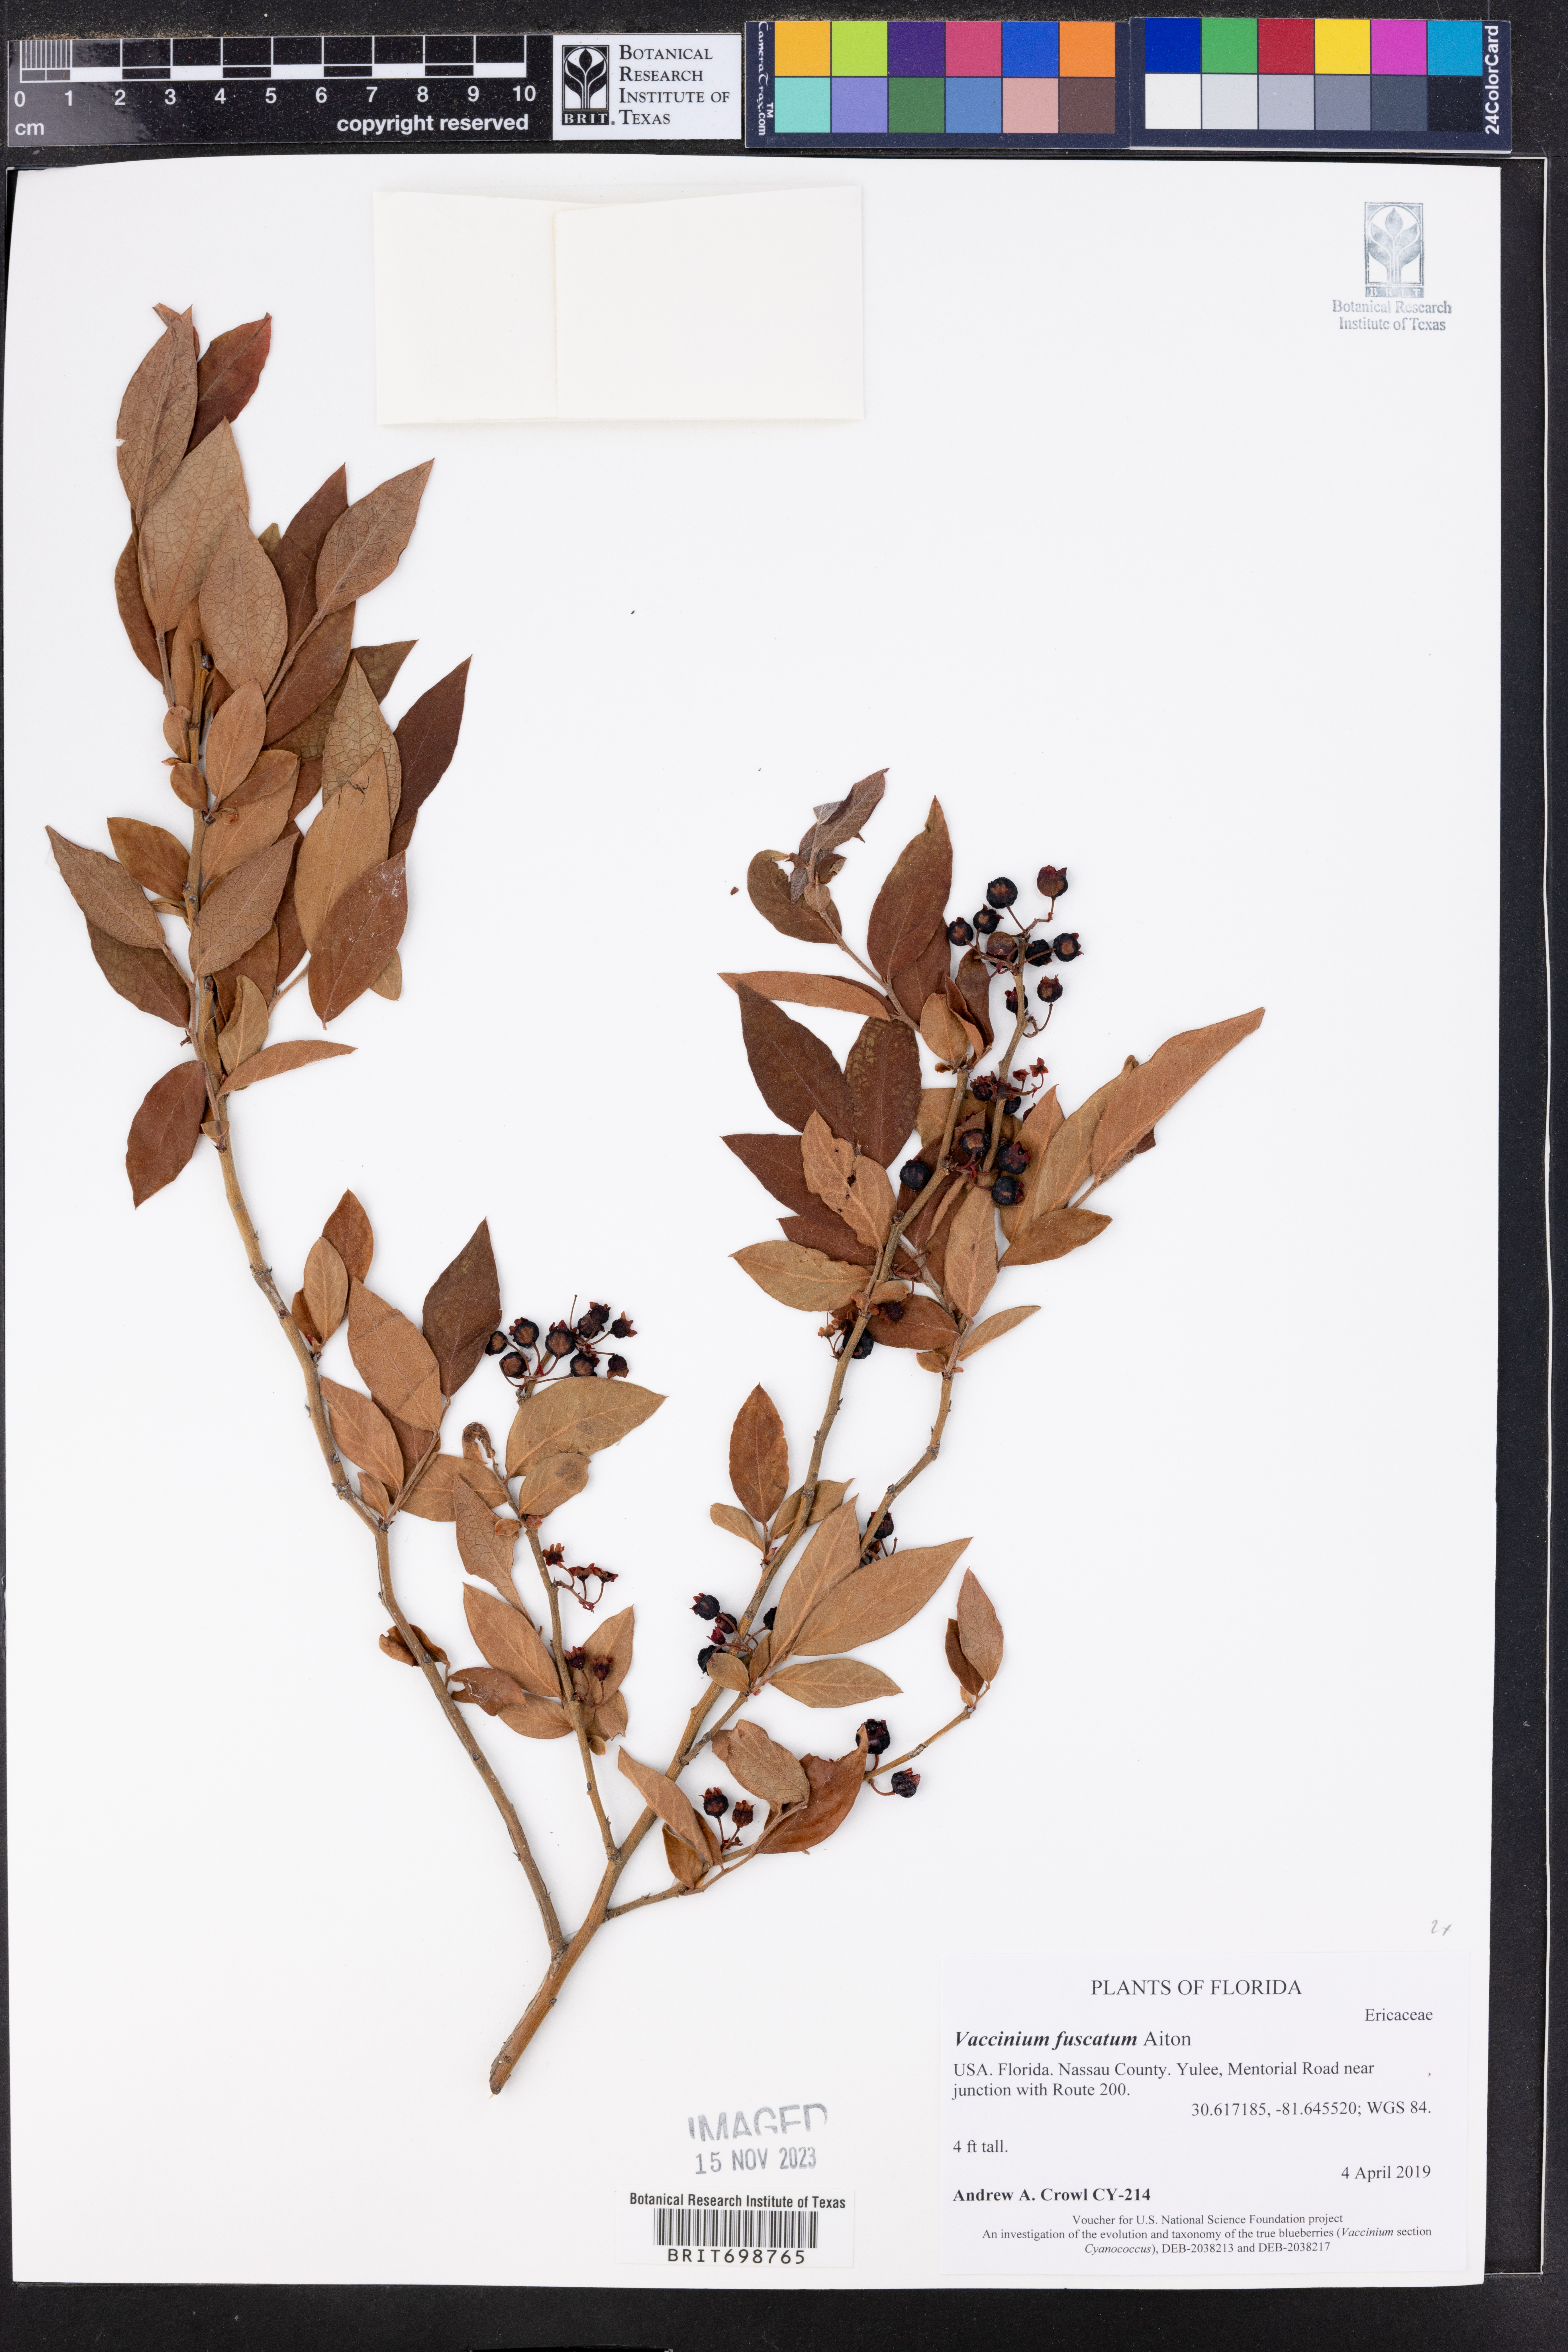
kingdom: Plantae
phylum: Tracheophyta
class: Magnoliopsida
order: Ericales
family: Ericaceae
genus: Vaccinium
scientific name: Vaccinium corymbosum
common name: Blueberry
